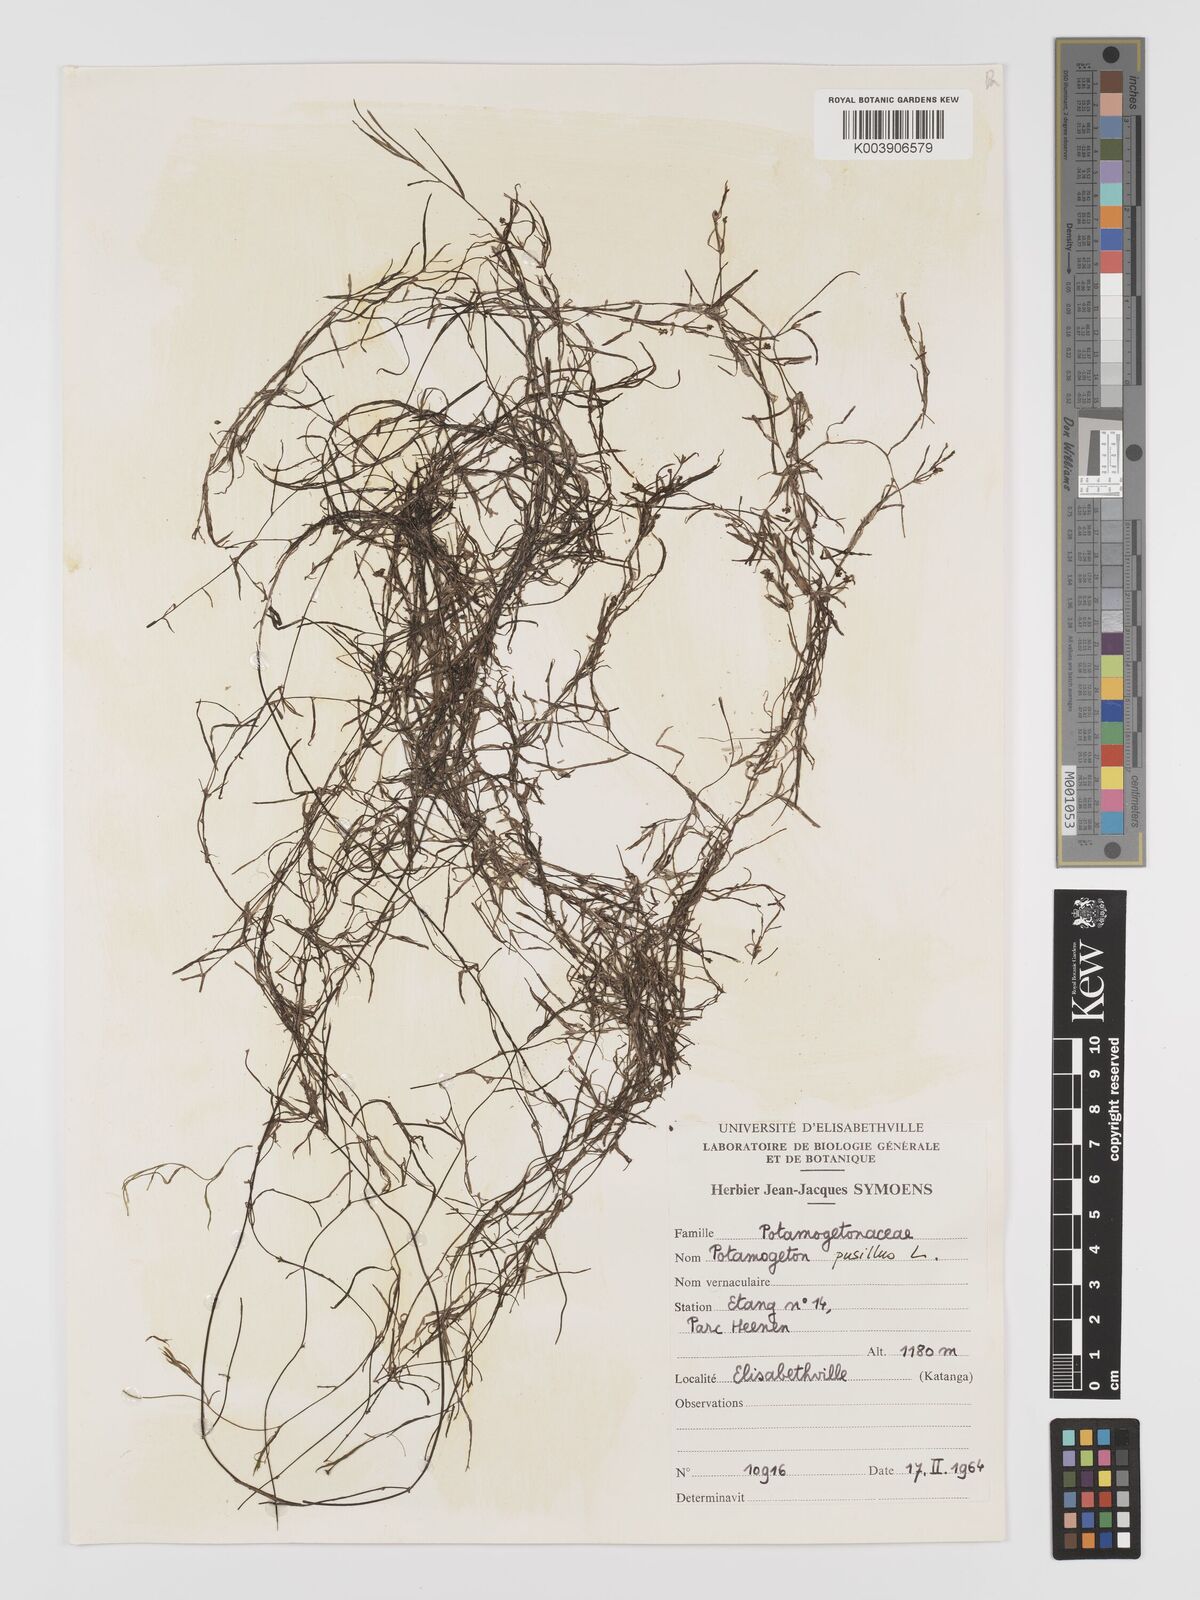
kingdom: Plantae
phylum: Tracheophyta
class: Liliopsida
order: Alismatales
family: Potamogetonaceae
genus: Potamogeton
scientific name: Potamogeton pusillus
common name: Lesser pondweed
